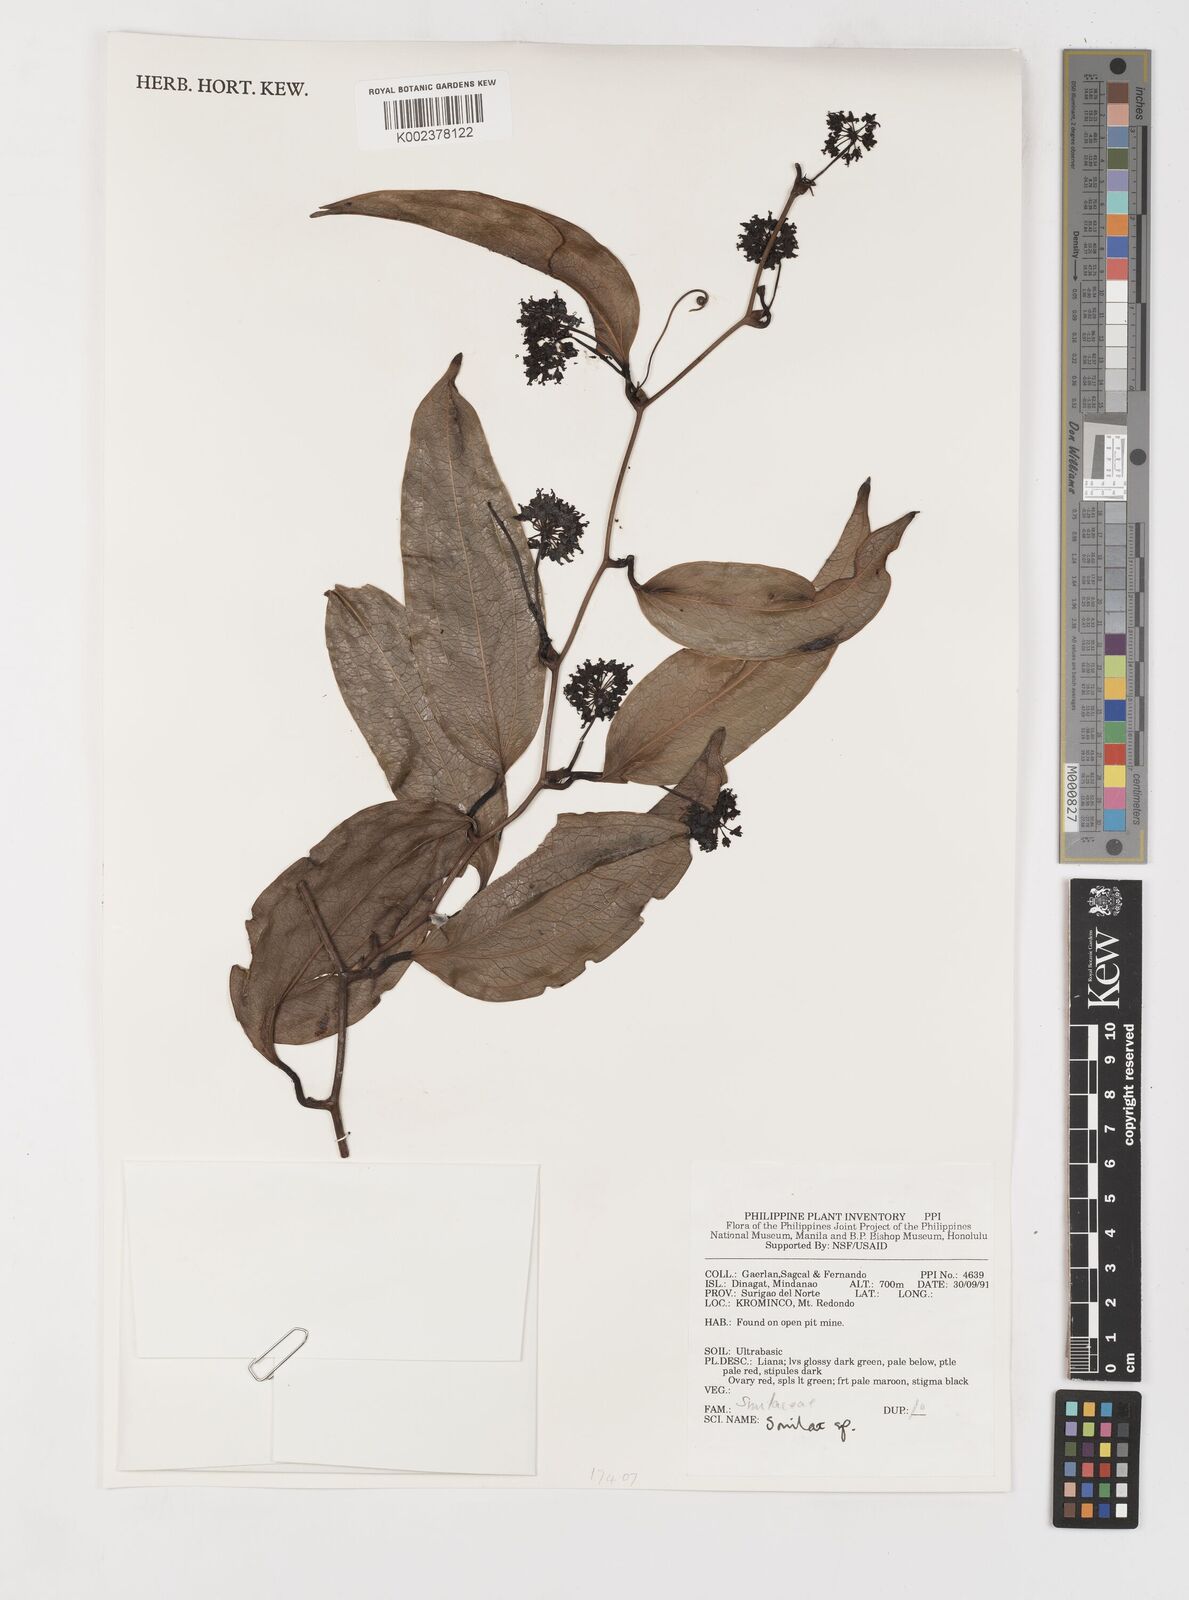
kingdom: Plantae
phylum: Tracheophyta
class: Liliopsida
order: Liliales
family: Smilacaceae
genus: Smilax
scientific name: Smilax
